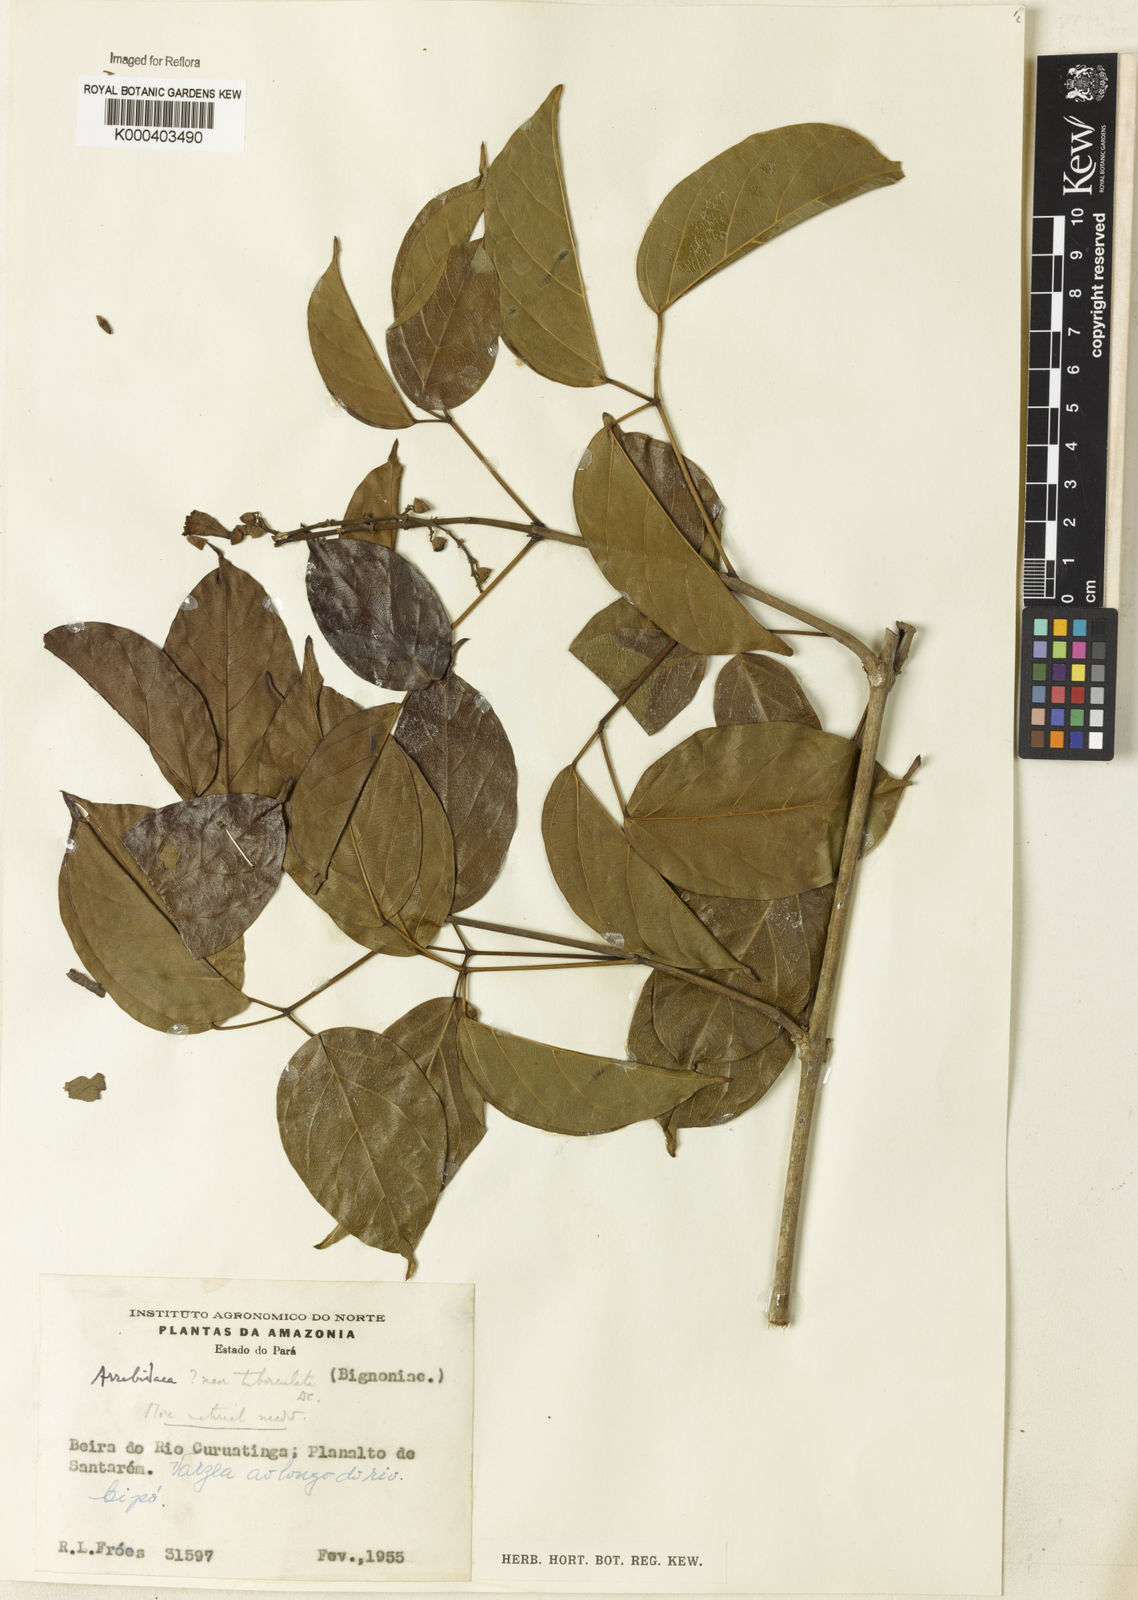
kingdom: Plantae
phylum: Tracheophyta
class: Magnoliopsida
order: Rosales
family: Rhamnaceae
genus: Arrabidaea
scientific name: Arrabidaea
